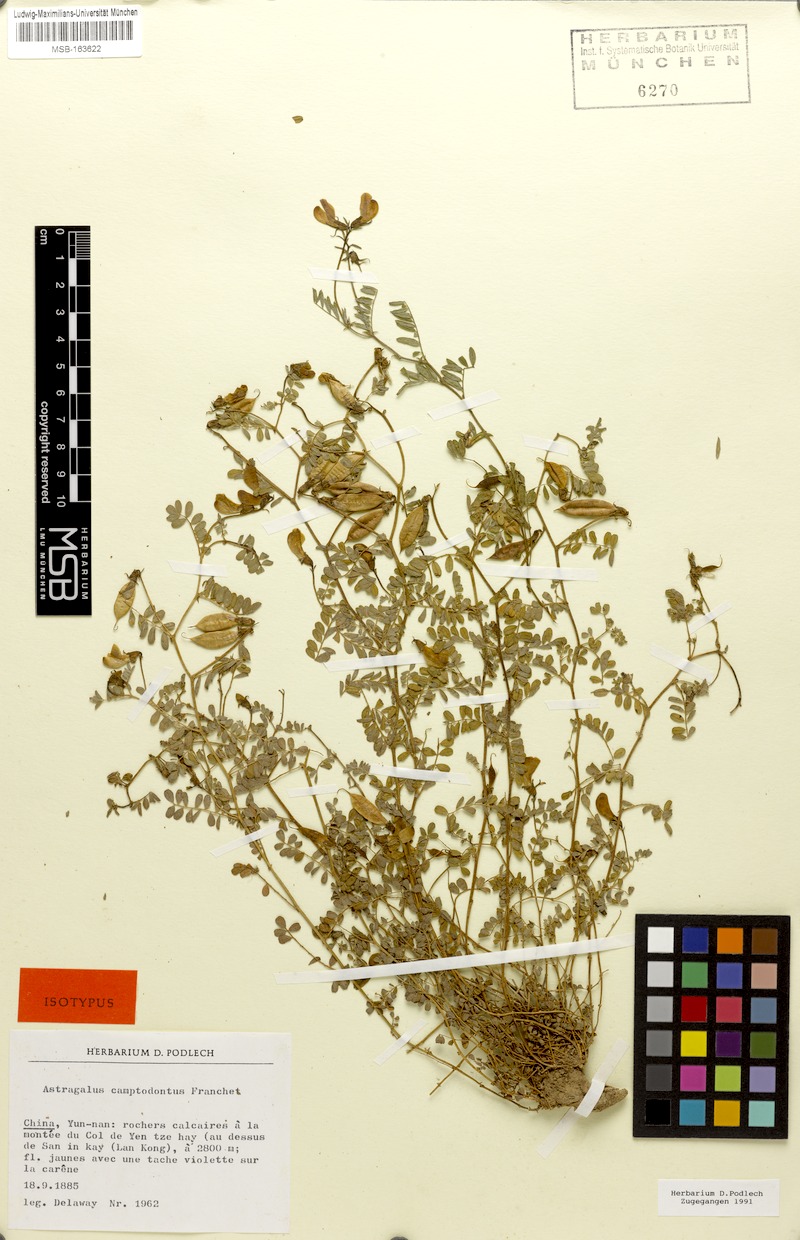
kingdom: Plantae
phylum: Tracheophyta
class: Magnoliopsida
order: Fabales
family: Fabaceae
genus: Phyllolobium
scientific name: Phyllolobium camptodontum
